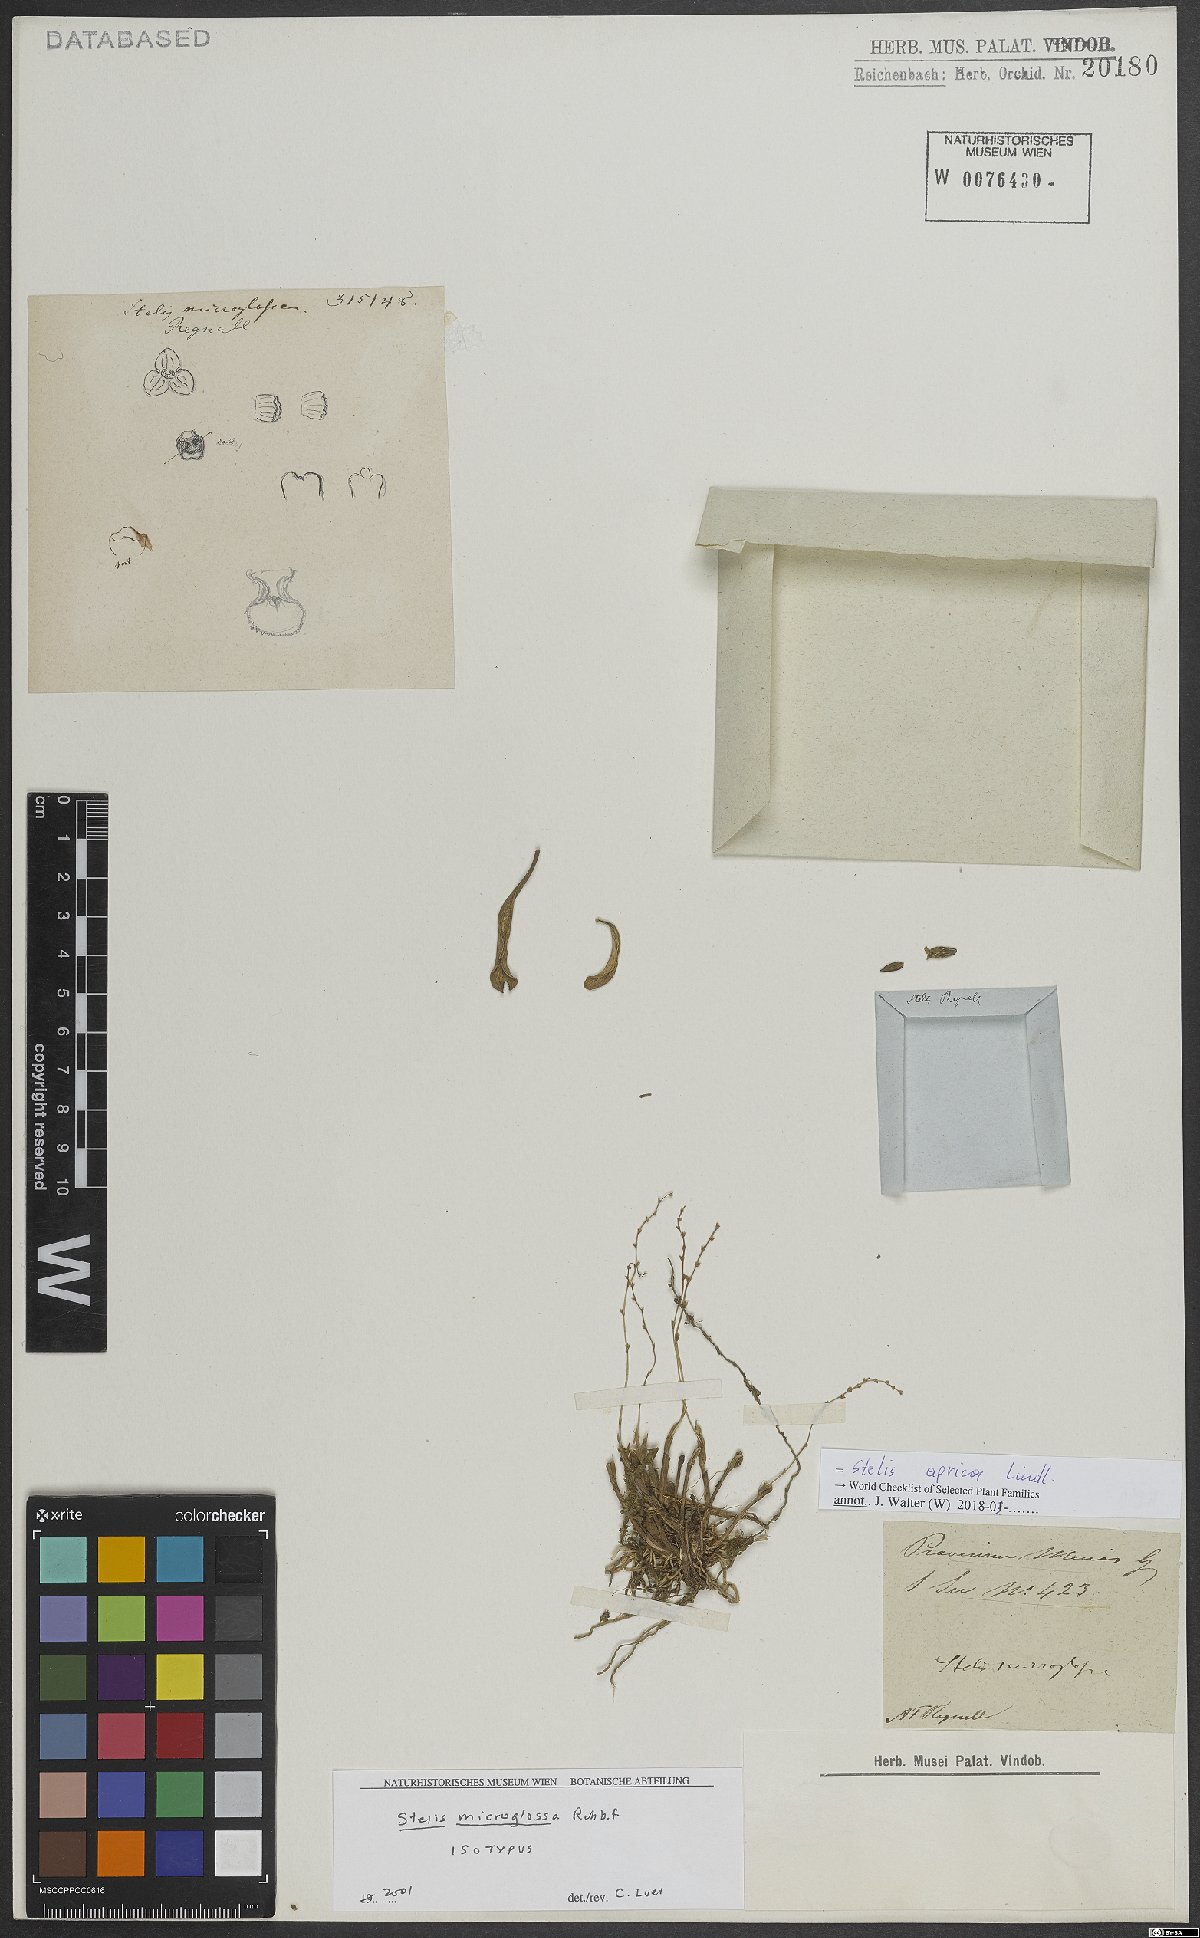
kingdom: Plantae
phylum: Tracheophyta
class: Liliopsida
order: Asparagales
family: Orchidaceae
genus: Stelis
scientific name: Stelis aprica
